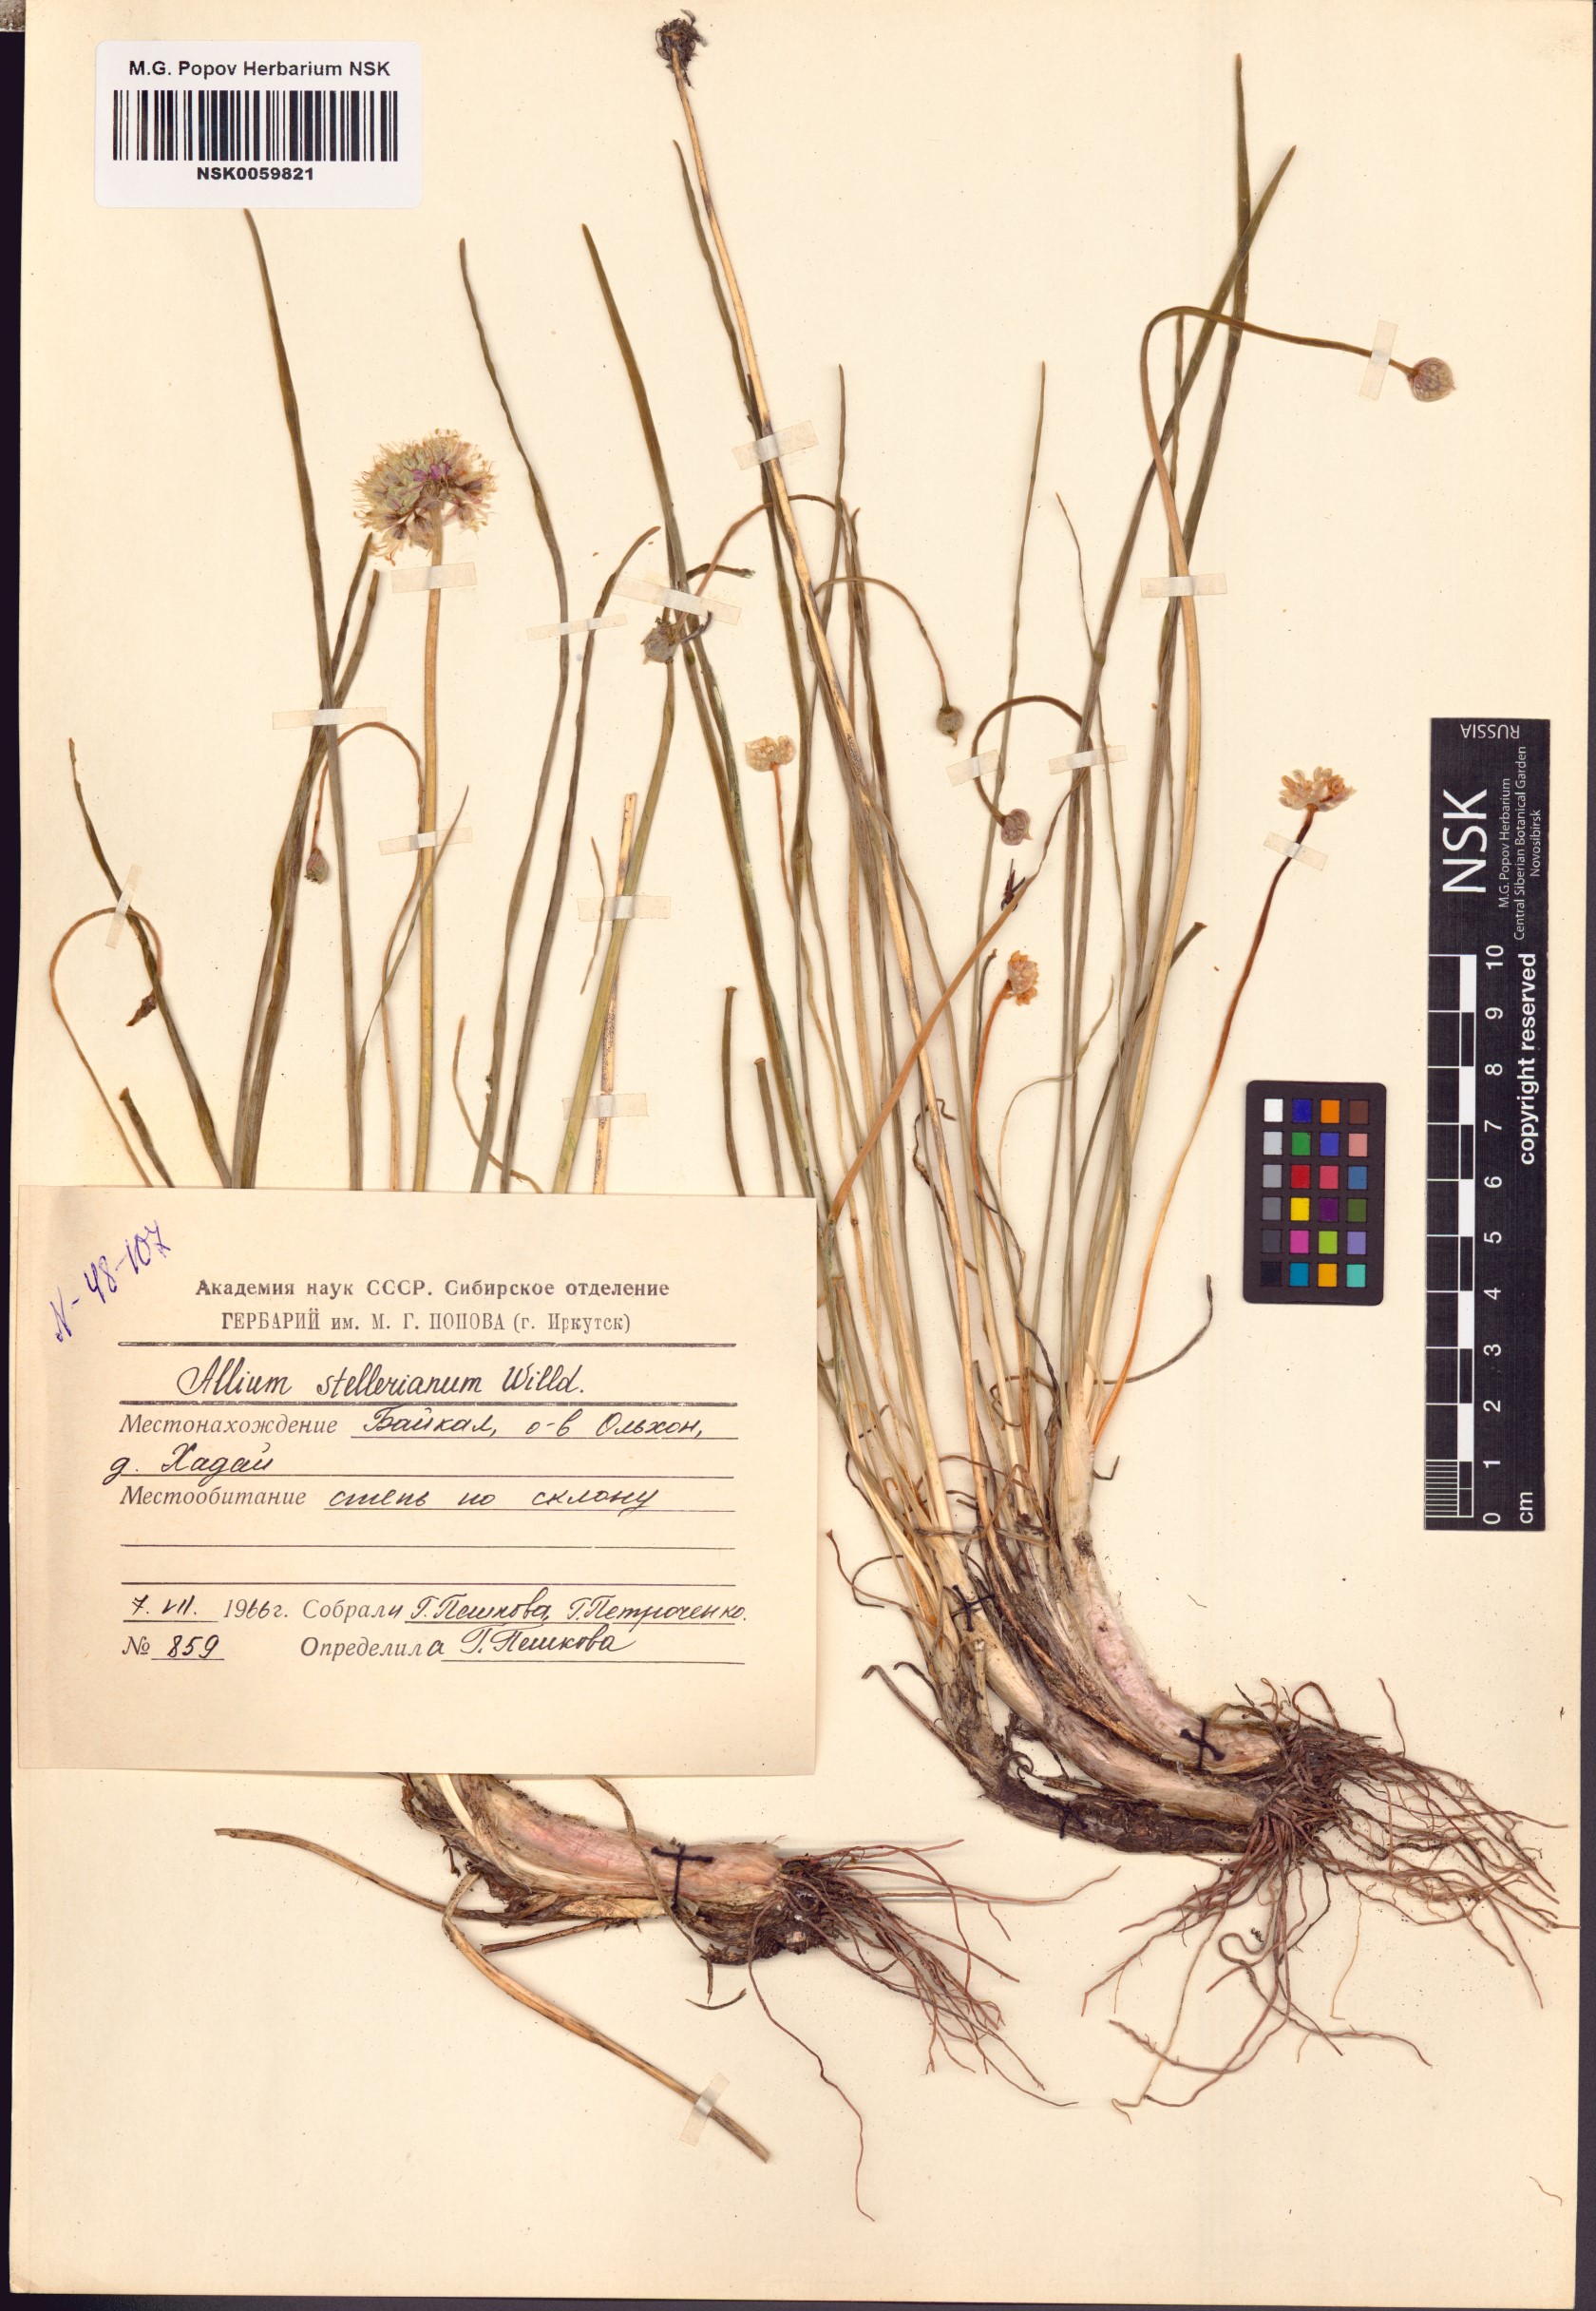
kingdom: Plantae
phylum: Tracheophyta
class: Liliopsida
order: Asparagales
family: Amaryllidaceae
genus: Allium
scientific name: Allium stellerianum
